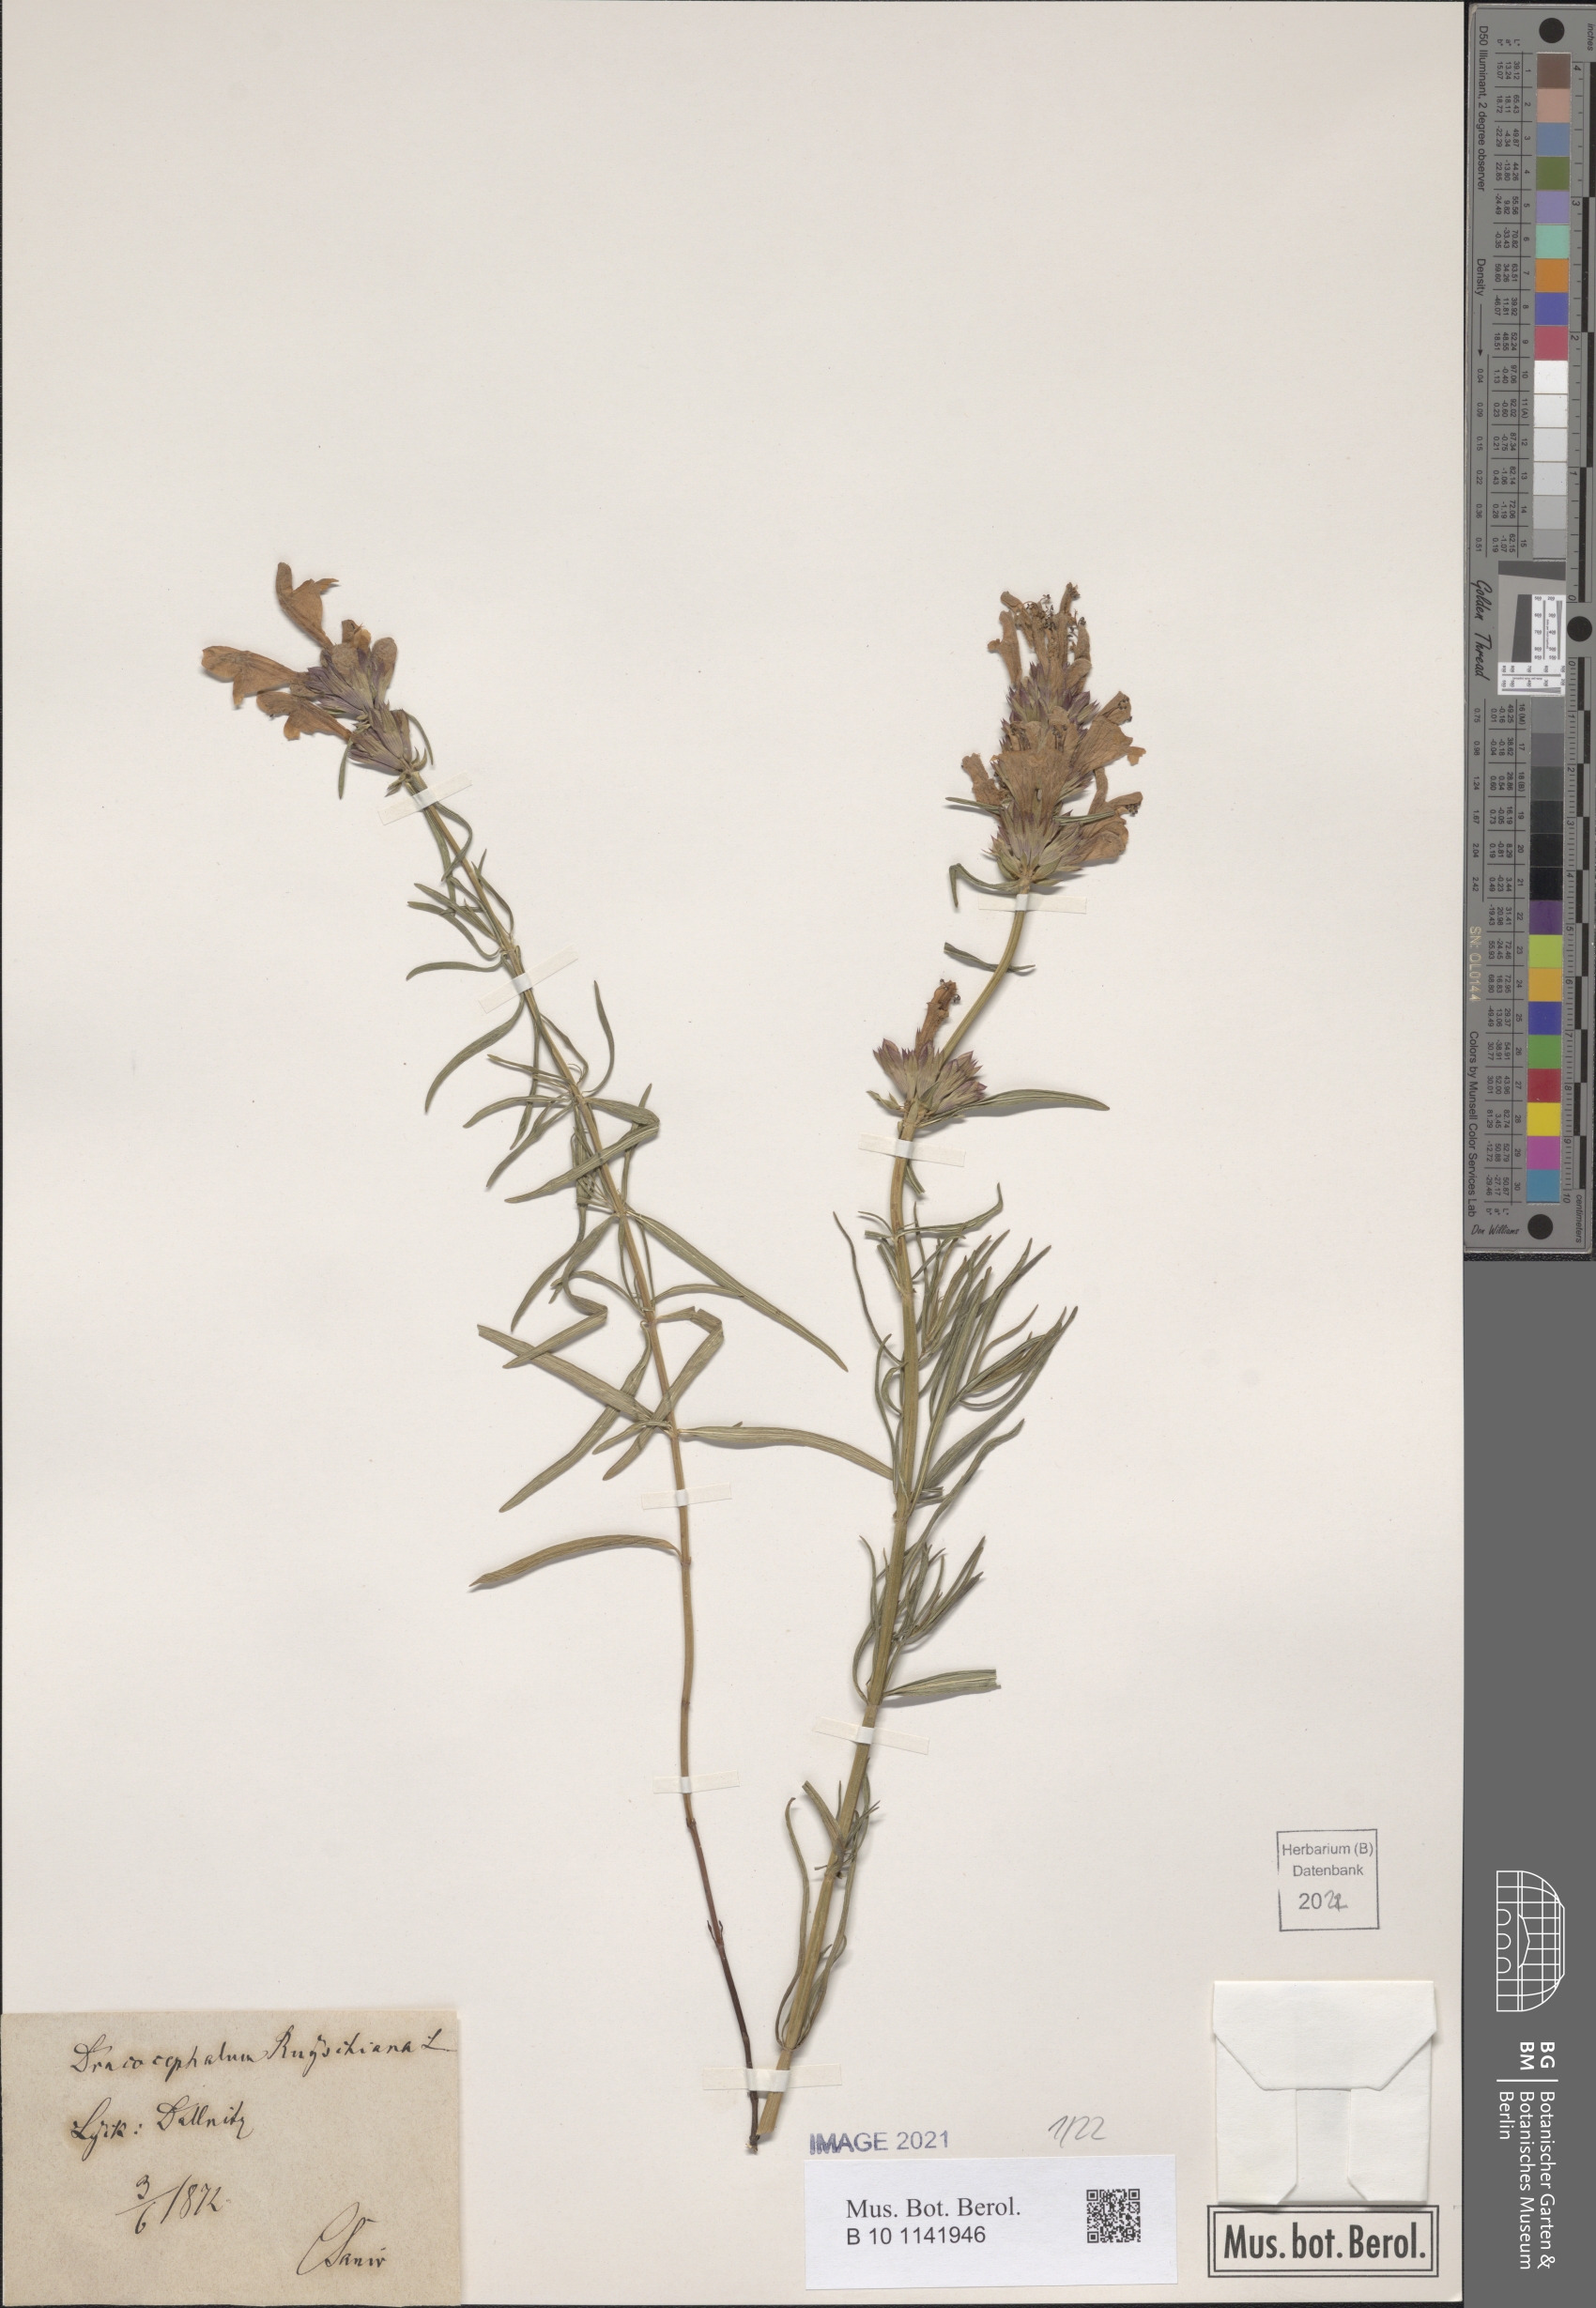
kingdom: Plantae
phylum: Tracheophyta
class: Magnoliopsida
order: Lamiales
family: Lamiaceae
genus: Dracocephalum
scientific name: Dracocephalum ruyschiana
